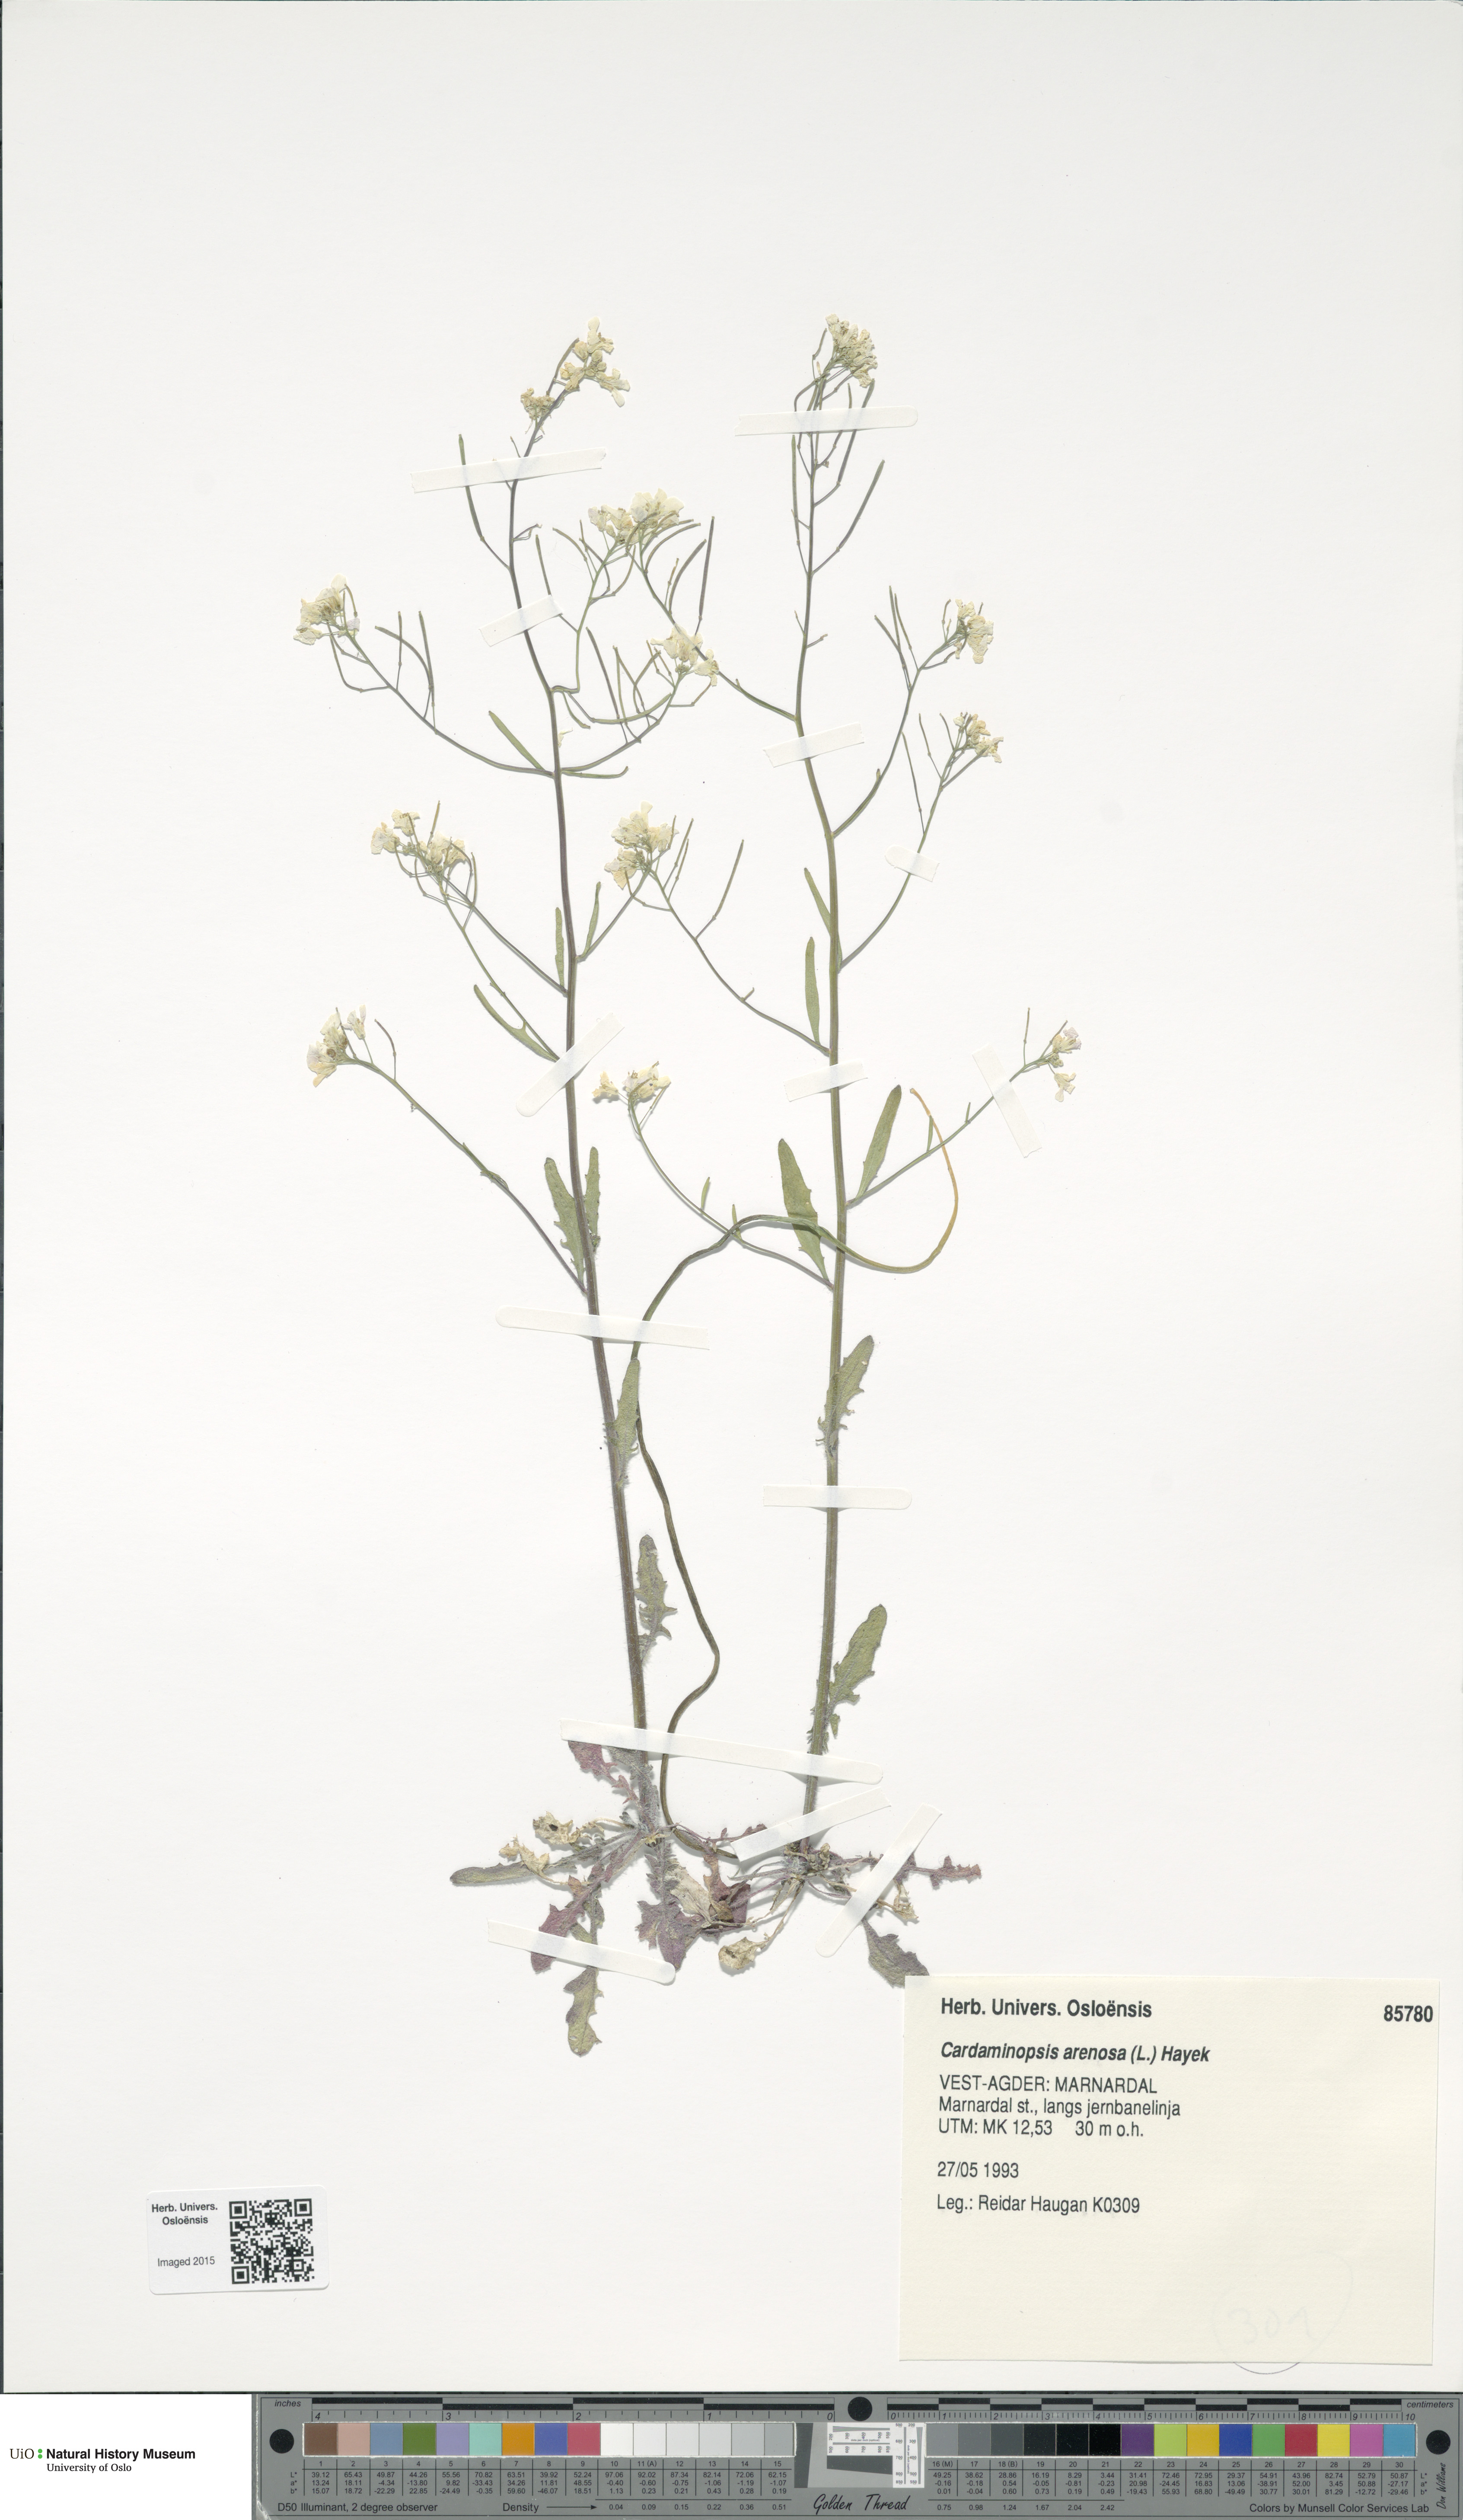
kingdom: Plantae
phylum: Tracheophyta
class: Magnoliopsida
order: Brassicales
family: Brassicaceae
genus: Arabidopsis
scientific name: Arabidopsis arenosa
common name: Sand rock-cress
